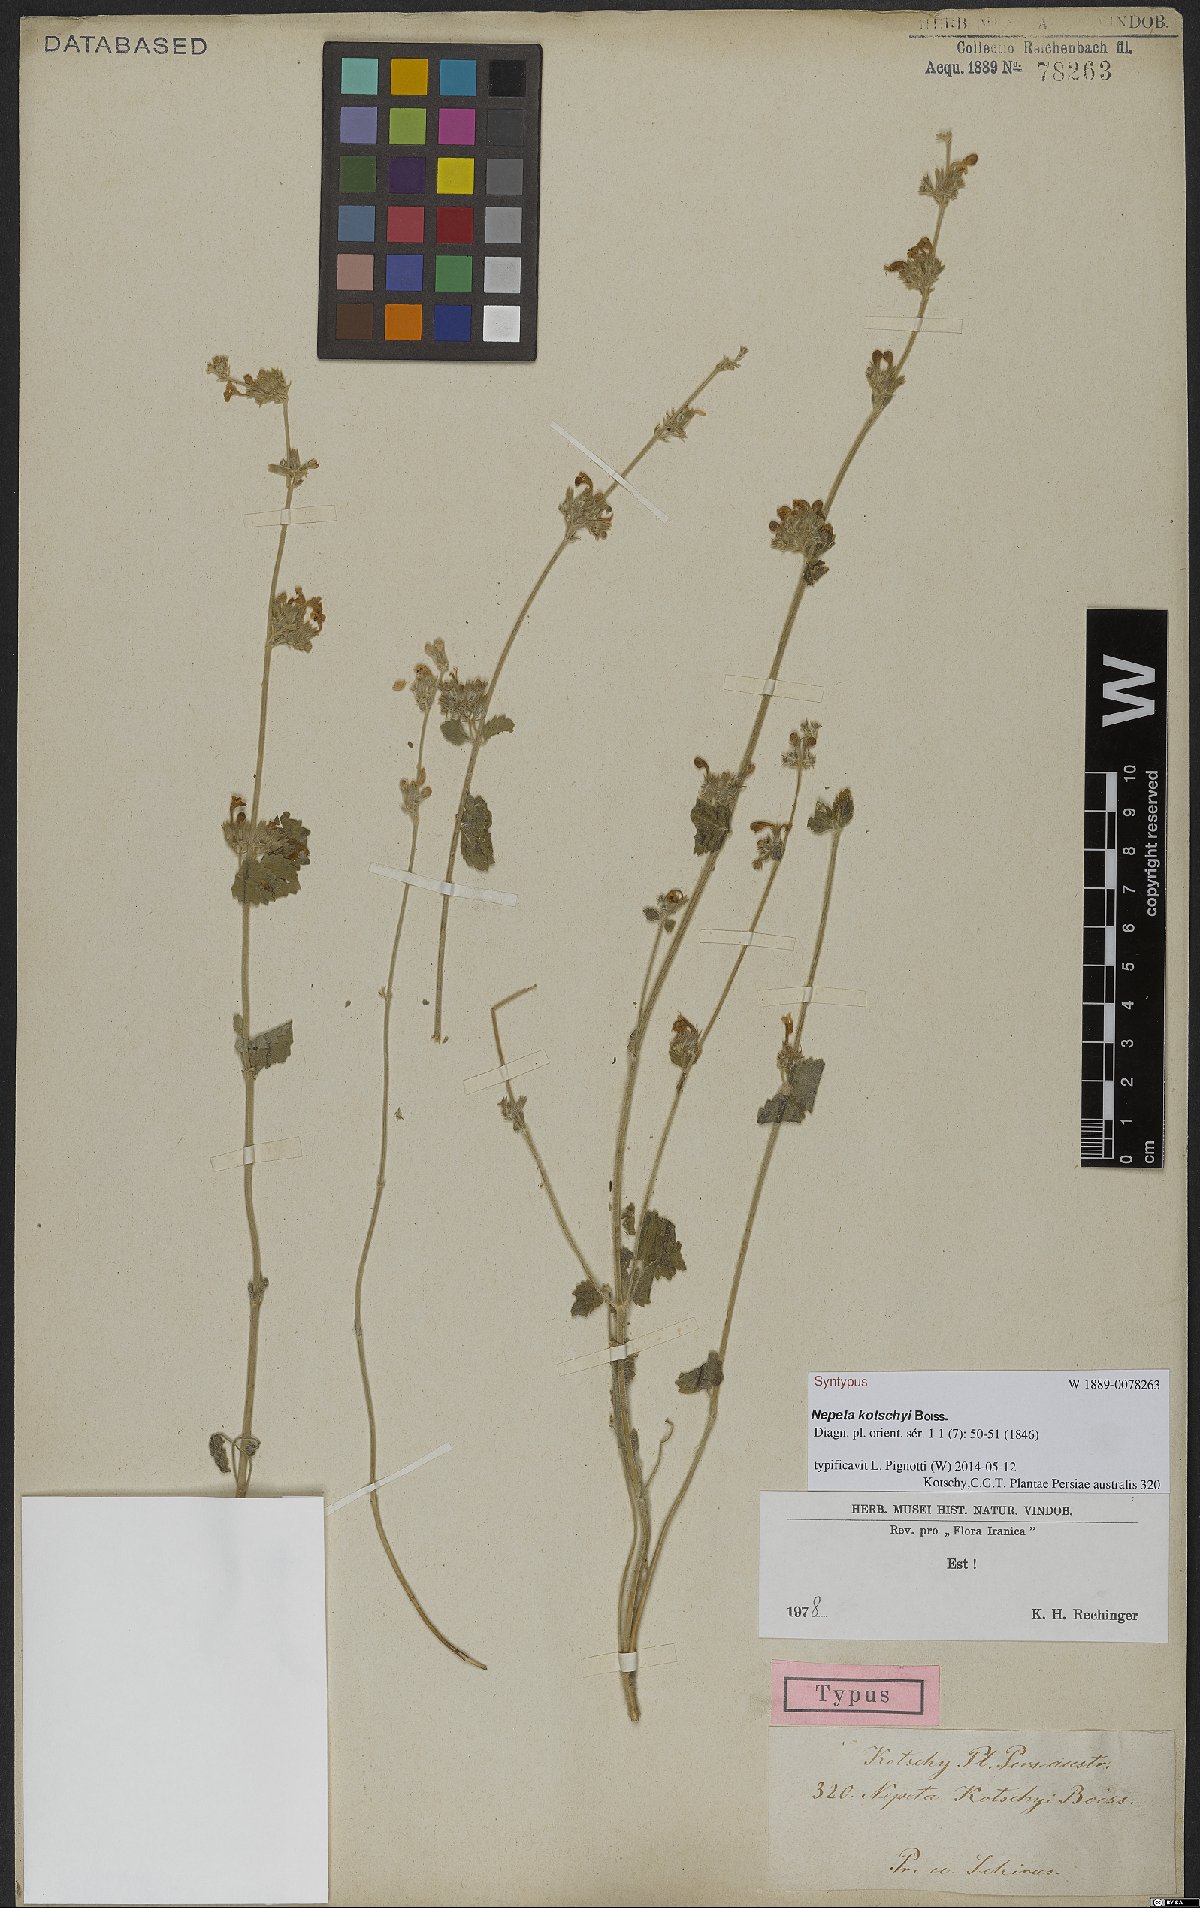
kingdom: Plantae
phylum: Tracheophyta
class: Magnoliopsida
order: Lamiales
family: Lamiaceae
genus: Nepeta
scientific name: Nepeta kotschyi
